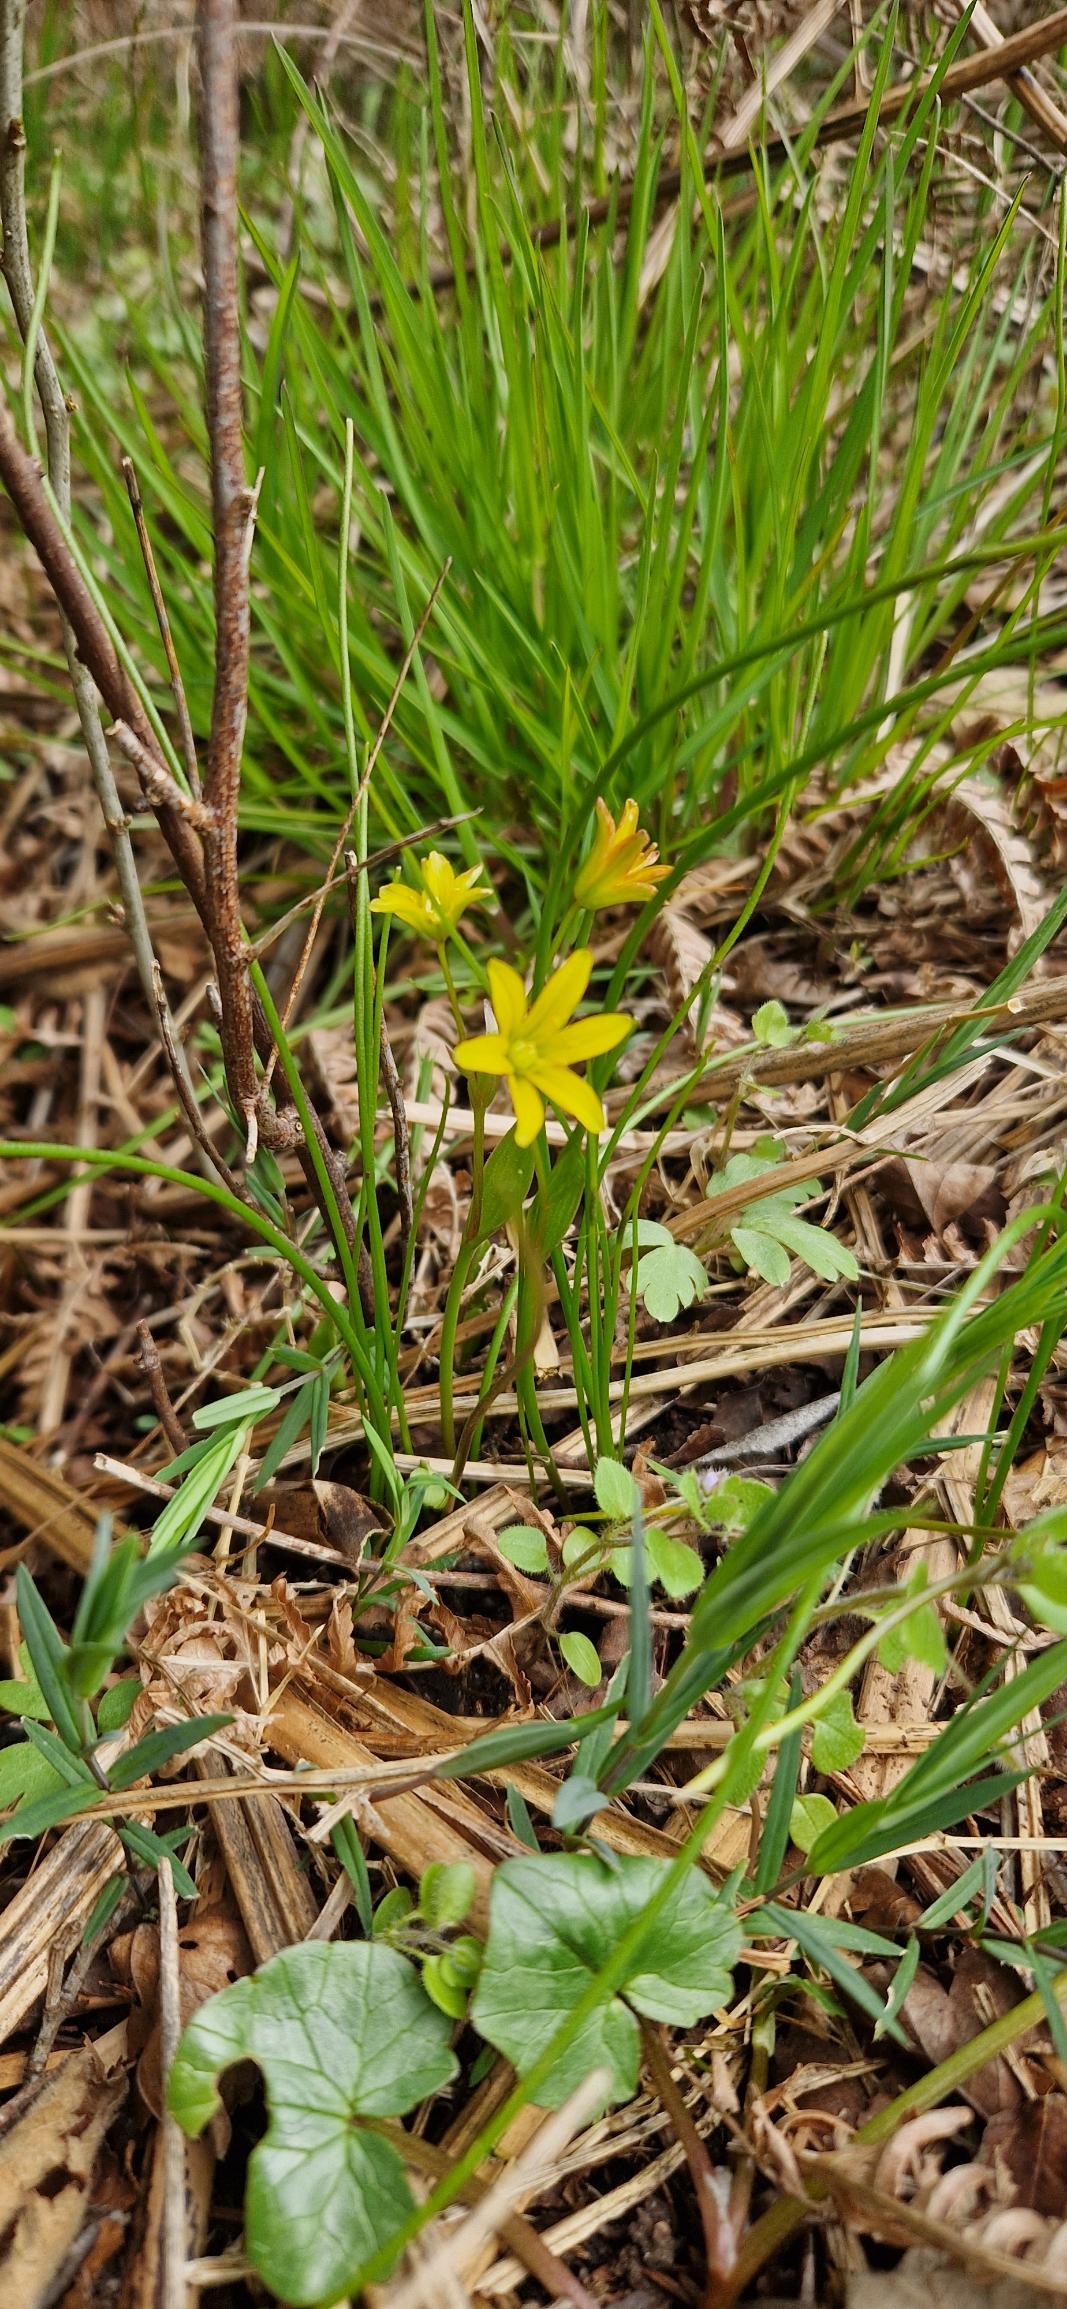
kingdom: Plantae
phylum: Tracheophyta
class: Liliopsida
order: Liliales
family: Liliaceae
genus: Gagea
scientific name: Gagea spathacea
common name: Hylster-guldstjerne
